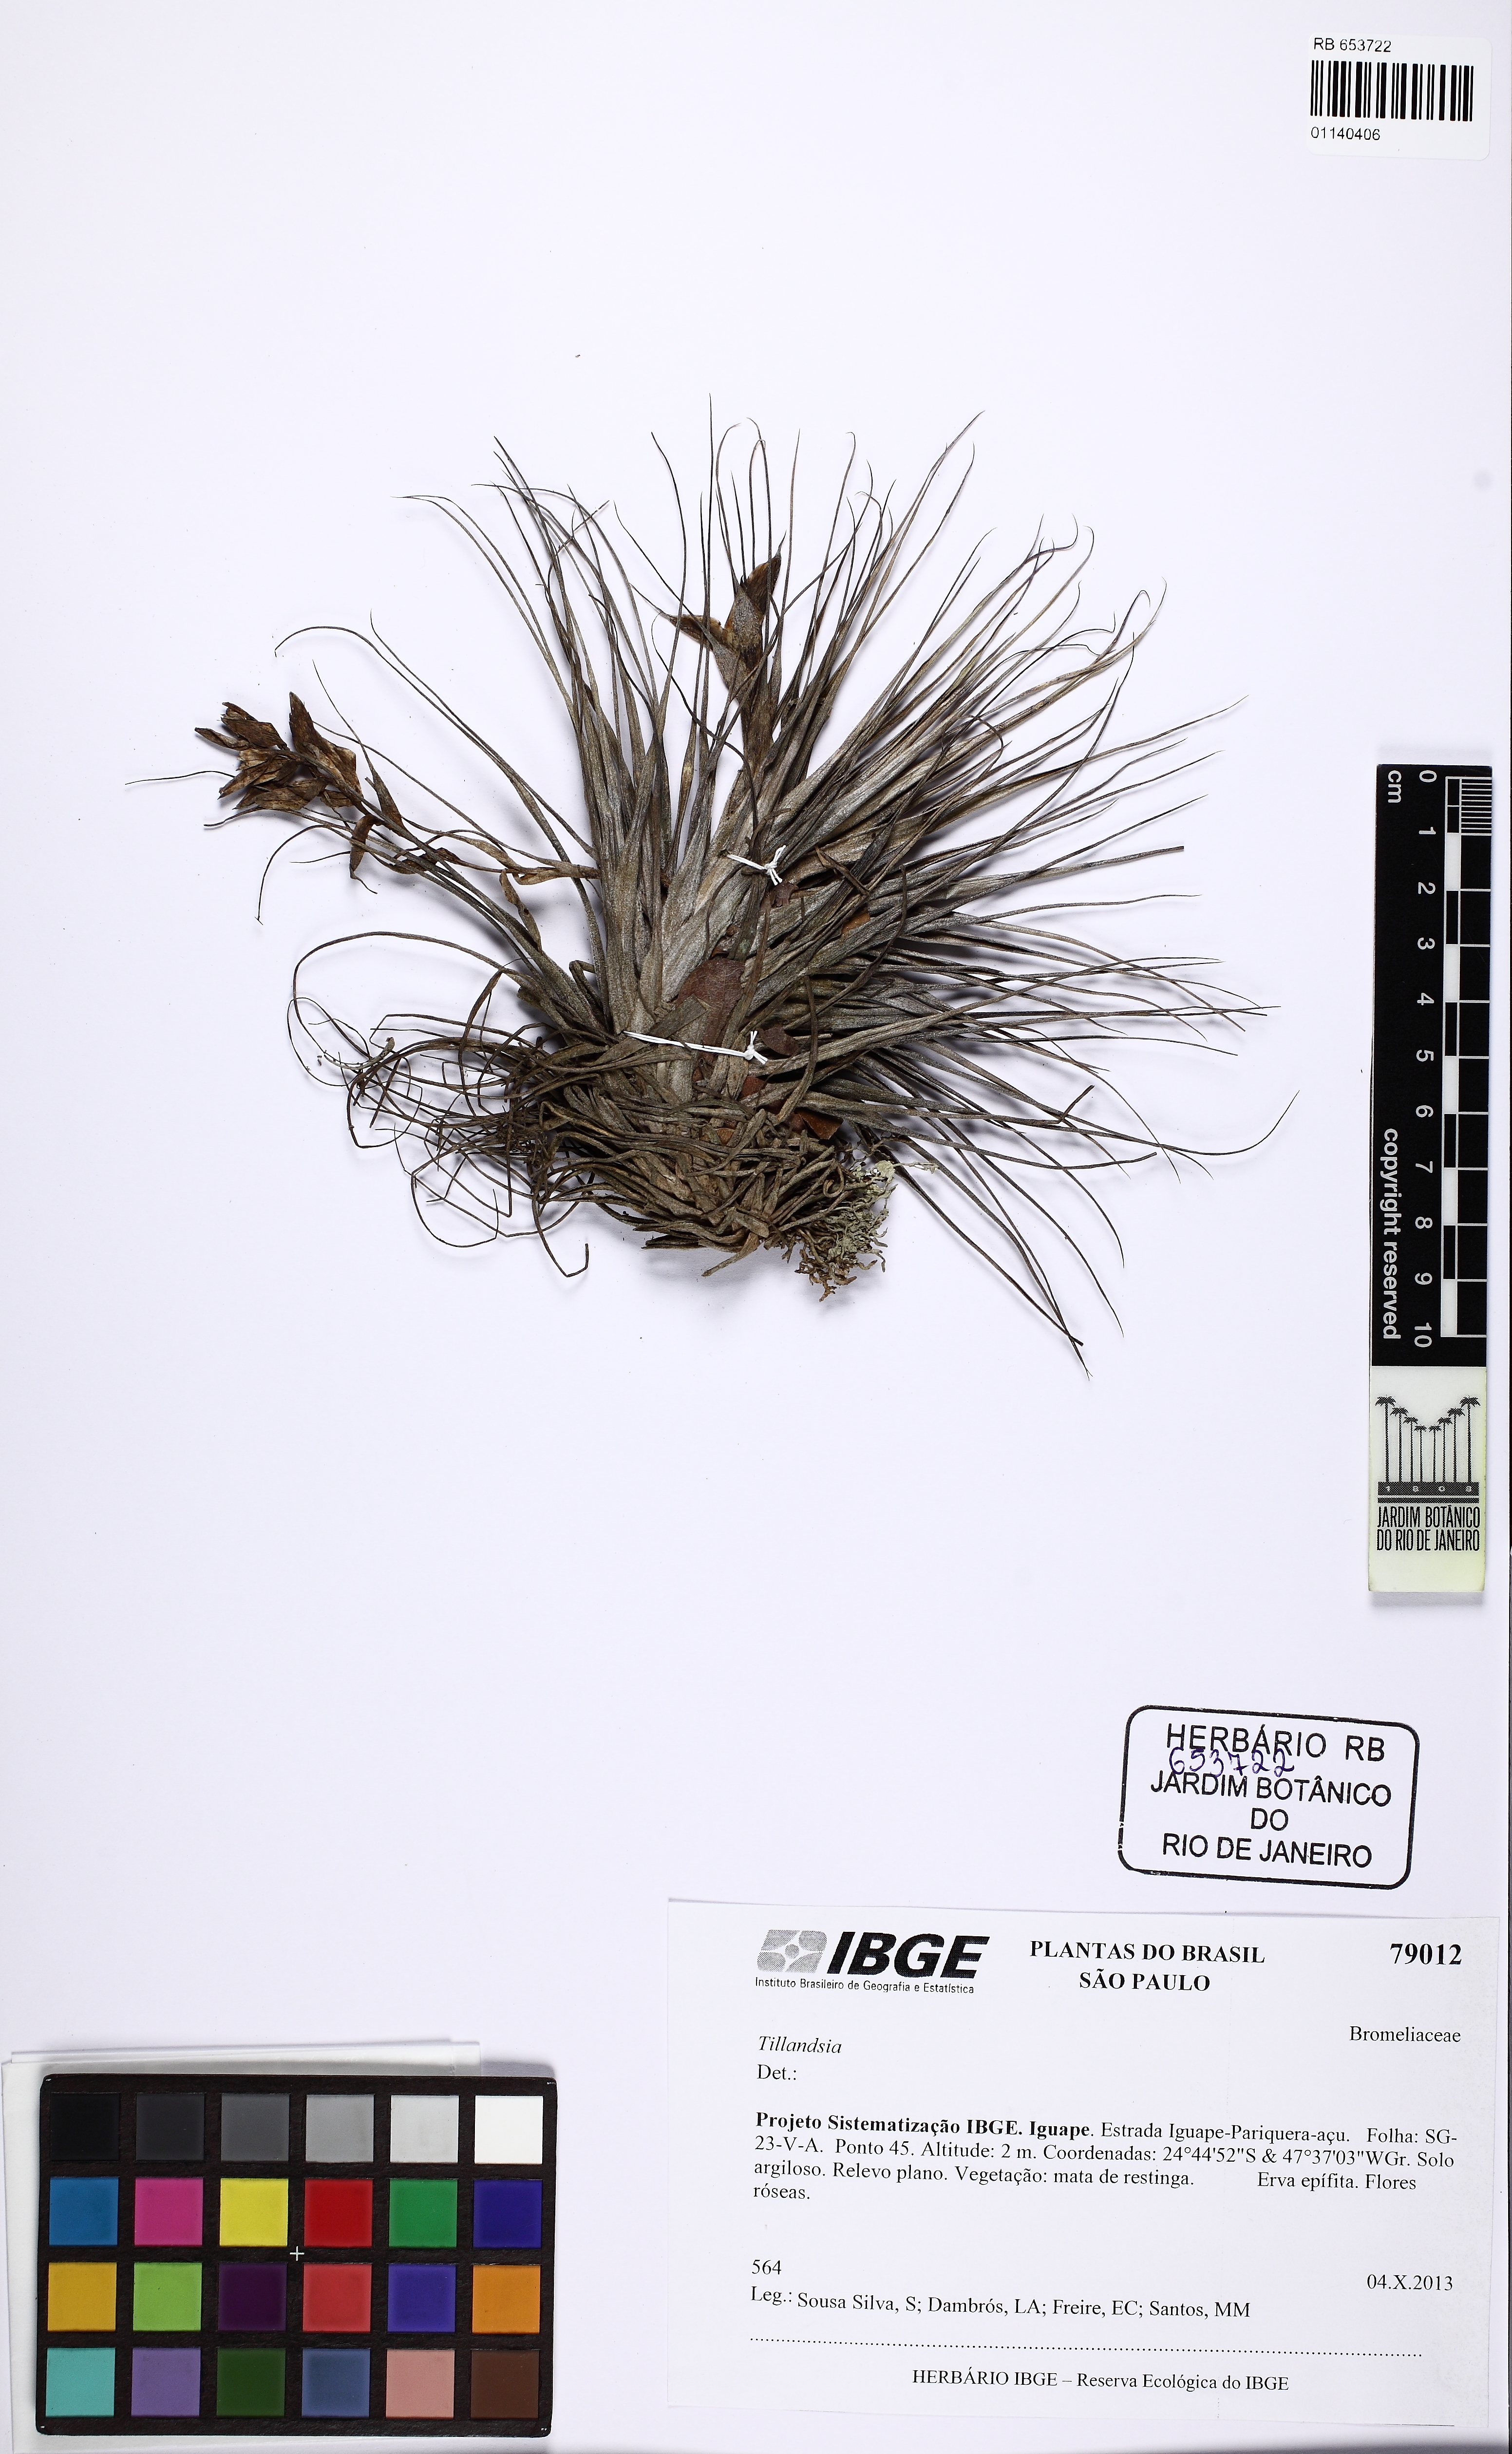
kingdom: Plantae
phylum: Tracheophyta
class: Liliopsida
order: Poales
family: Bromeliaceae
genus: Tillandsia
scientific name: Tillandsia stricta
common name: Airplant
